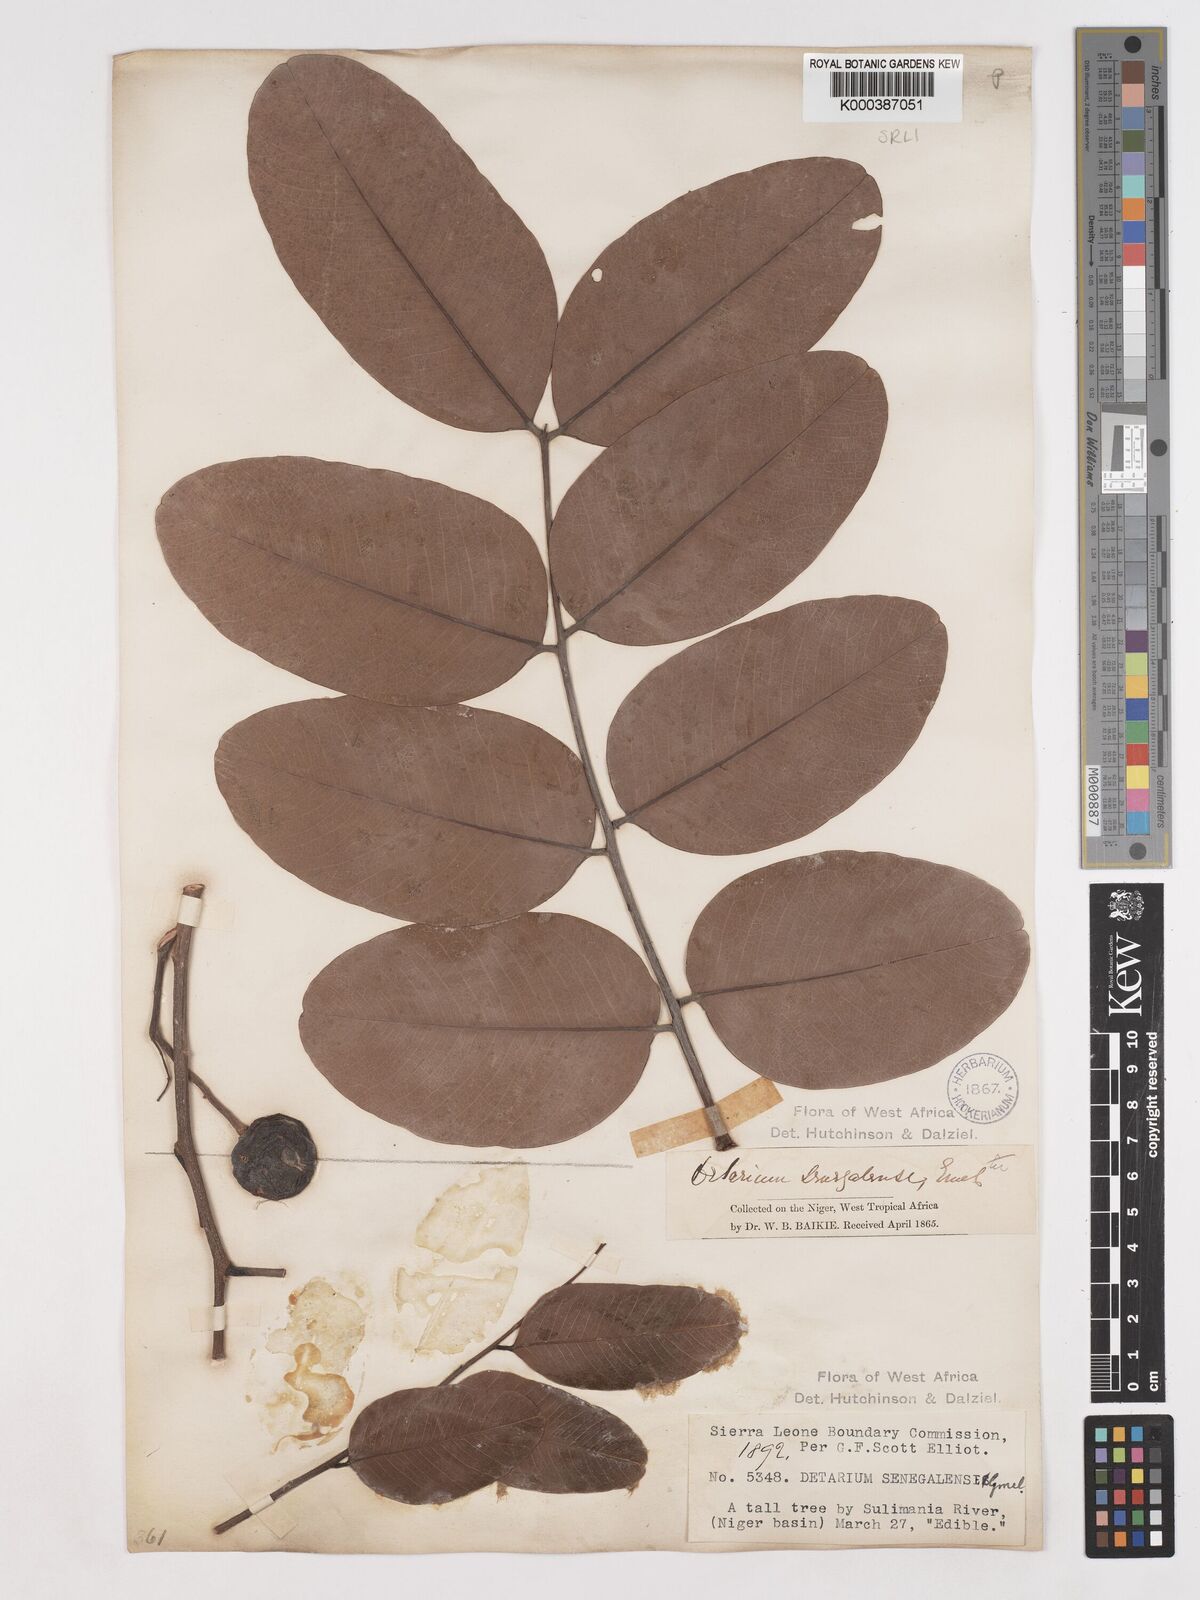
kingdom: Plantae
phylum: Tracheophyta
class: Magnoliopsida
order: Fabales
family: Fabaceae
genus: Detarium
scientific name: Detarium microcarpum
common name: Sweet dattock
